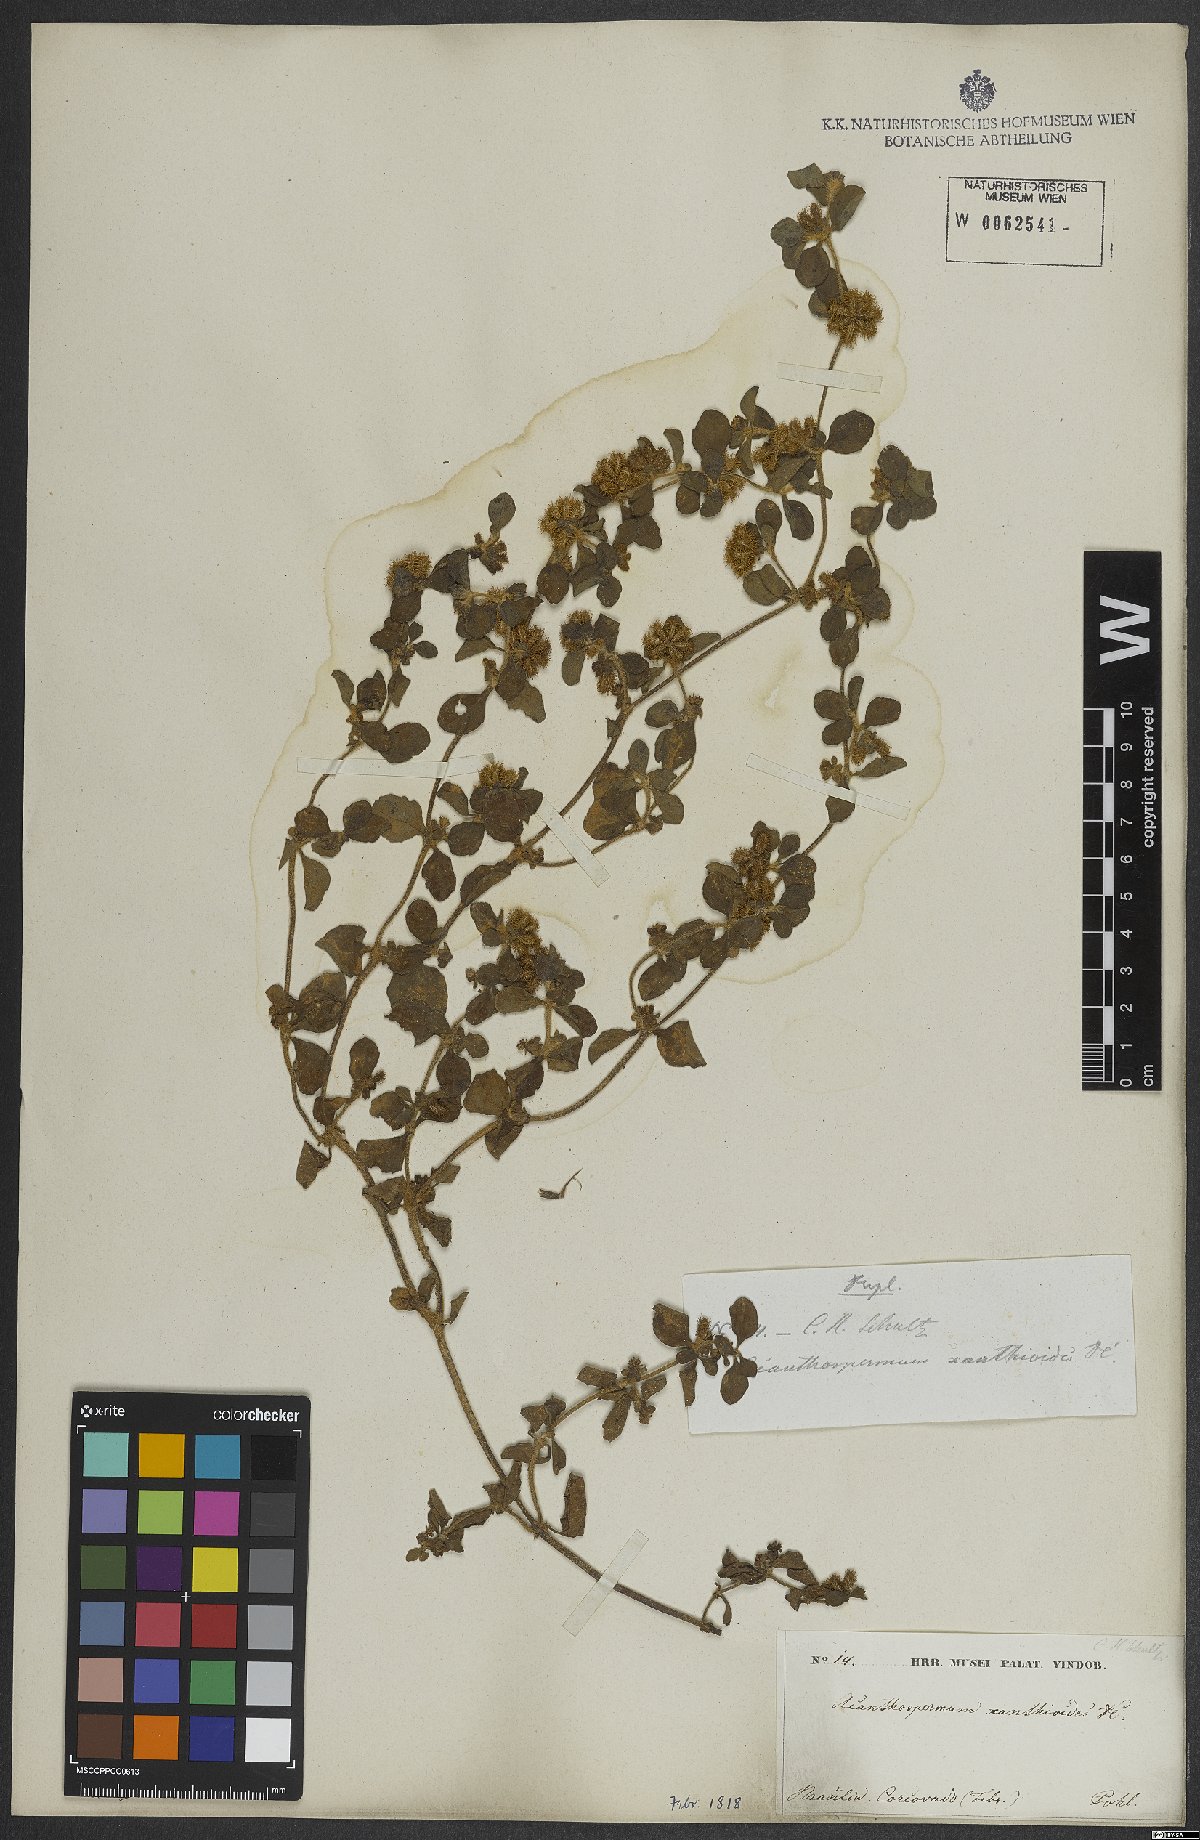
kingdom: Plantae
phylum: Tracheophyta
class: Magnoliopsida
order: Asterales
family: Asteraceae
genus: Acanthospermum
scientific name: Acanthospermum australe
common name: Paraguayan starbur
